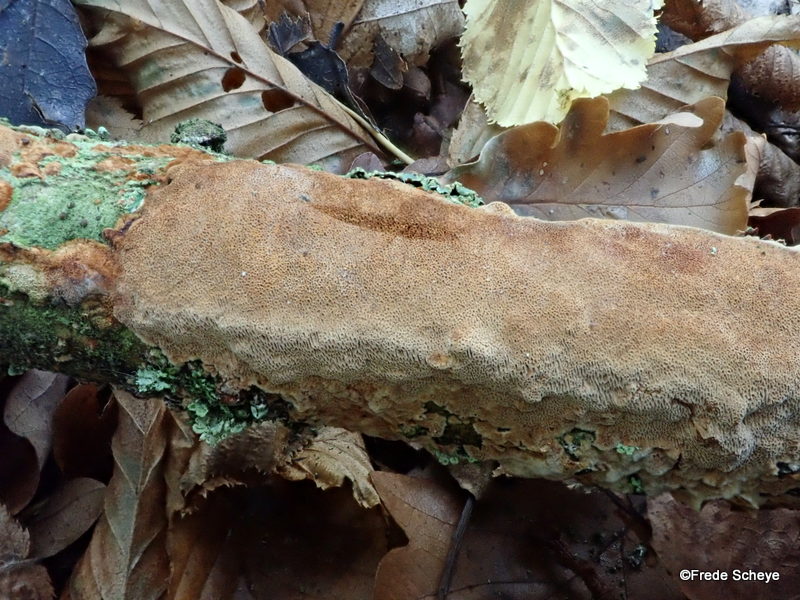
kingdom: Fungi
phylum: Basidiomycota
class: Agaricomycetes
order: Hymenochaetales
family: Hymenochaetaceae
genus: Fuscoporia
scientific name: Fuscoporia ferrea
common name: skorpe-ildporesvamp
